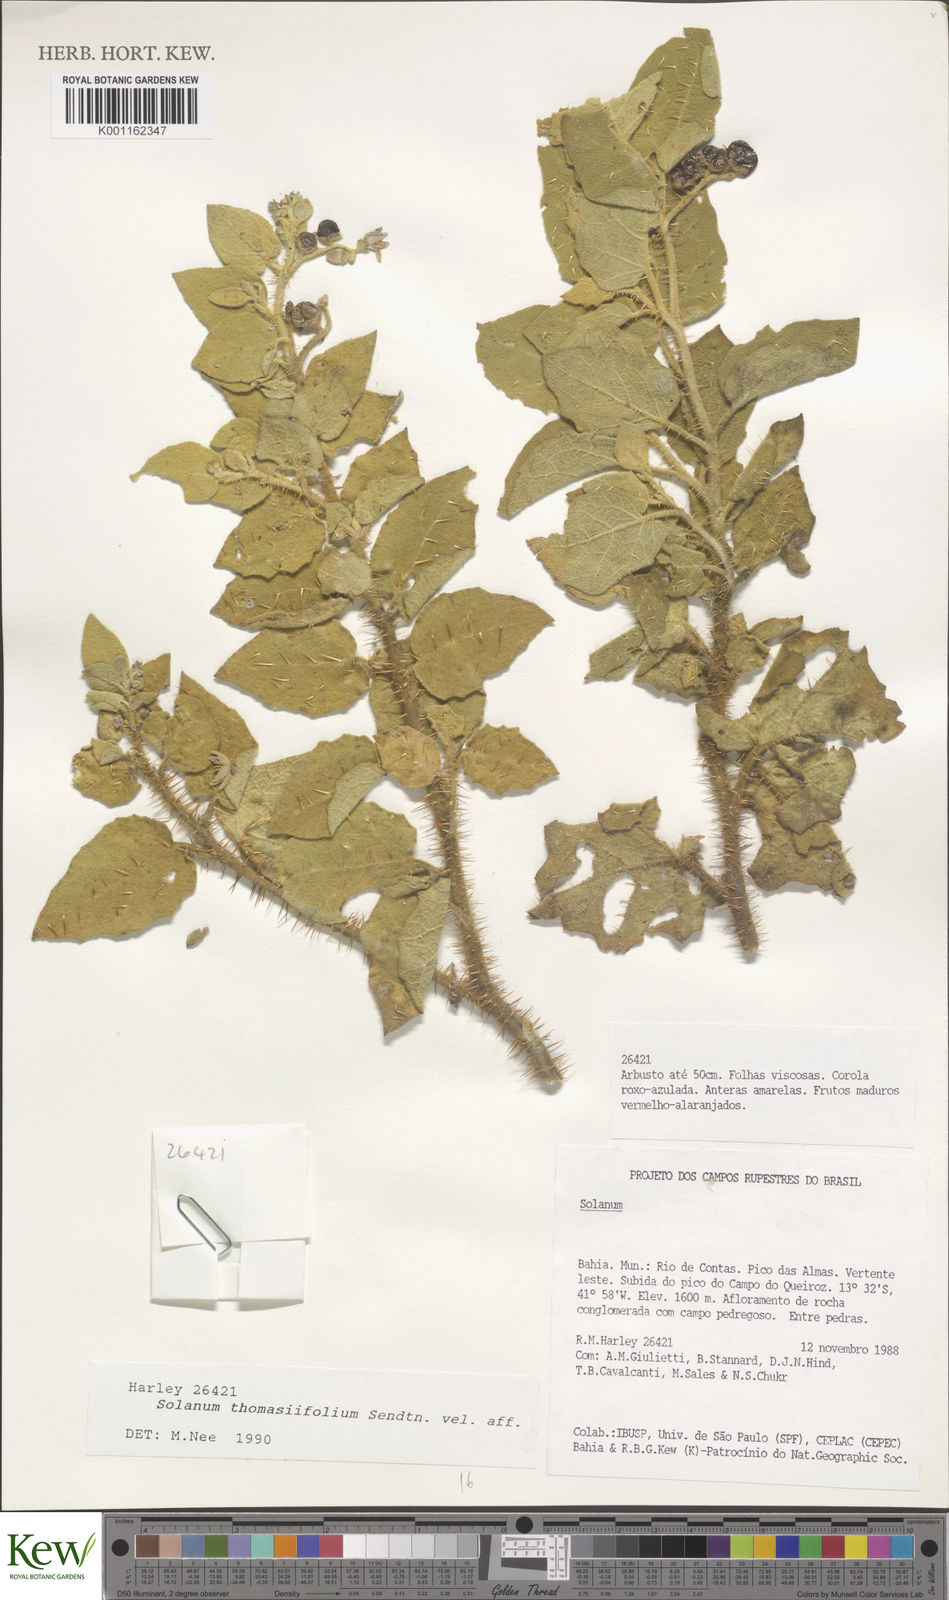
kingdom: Plantae
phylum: Tracheophyta
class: Magnoliopsida
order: Solanales
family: Solanaceae
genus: Solanum
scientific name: Solanum thomasiifolium
